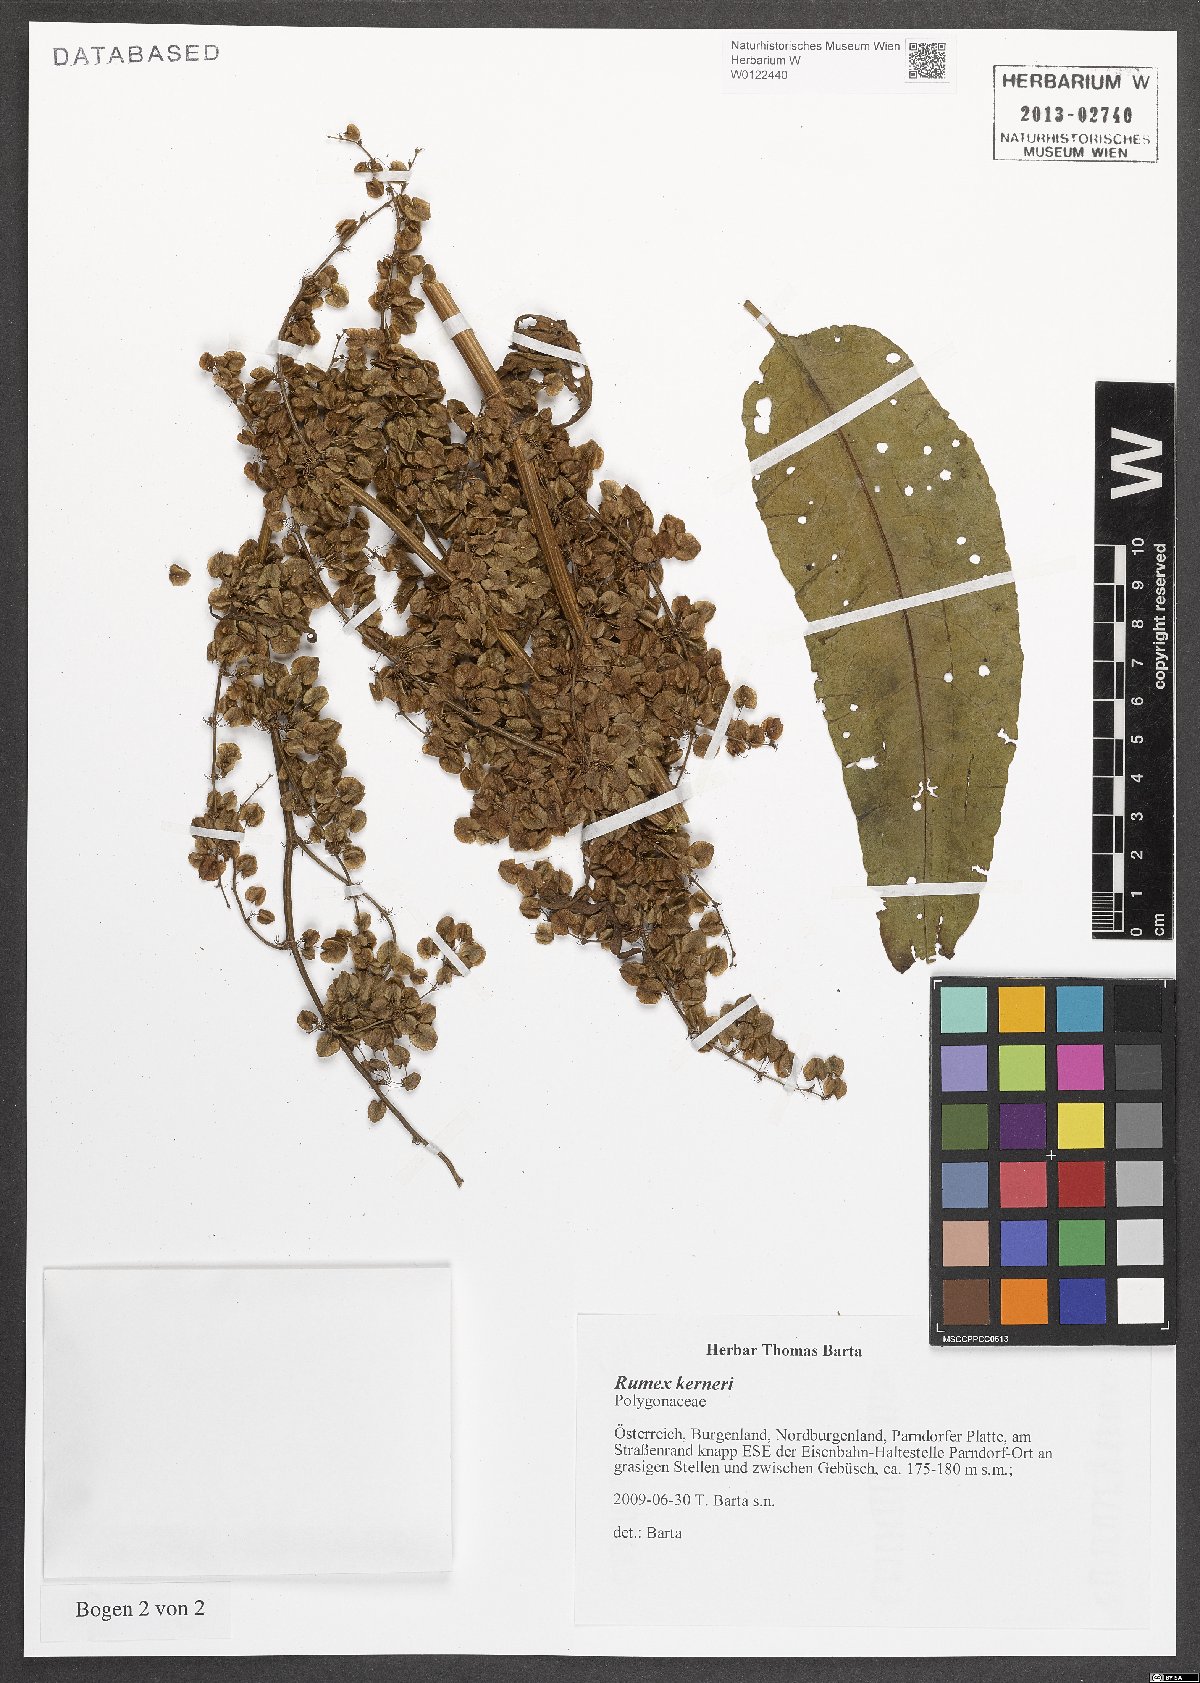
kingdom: Plantae
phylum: Tracheophyta
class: Magnoliopsida
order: Caryophyllales
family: Polygonaceae
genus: Rumex
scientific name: Rumex kerneri
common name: Kerner's dock
